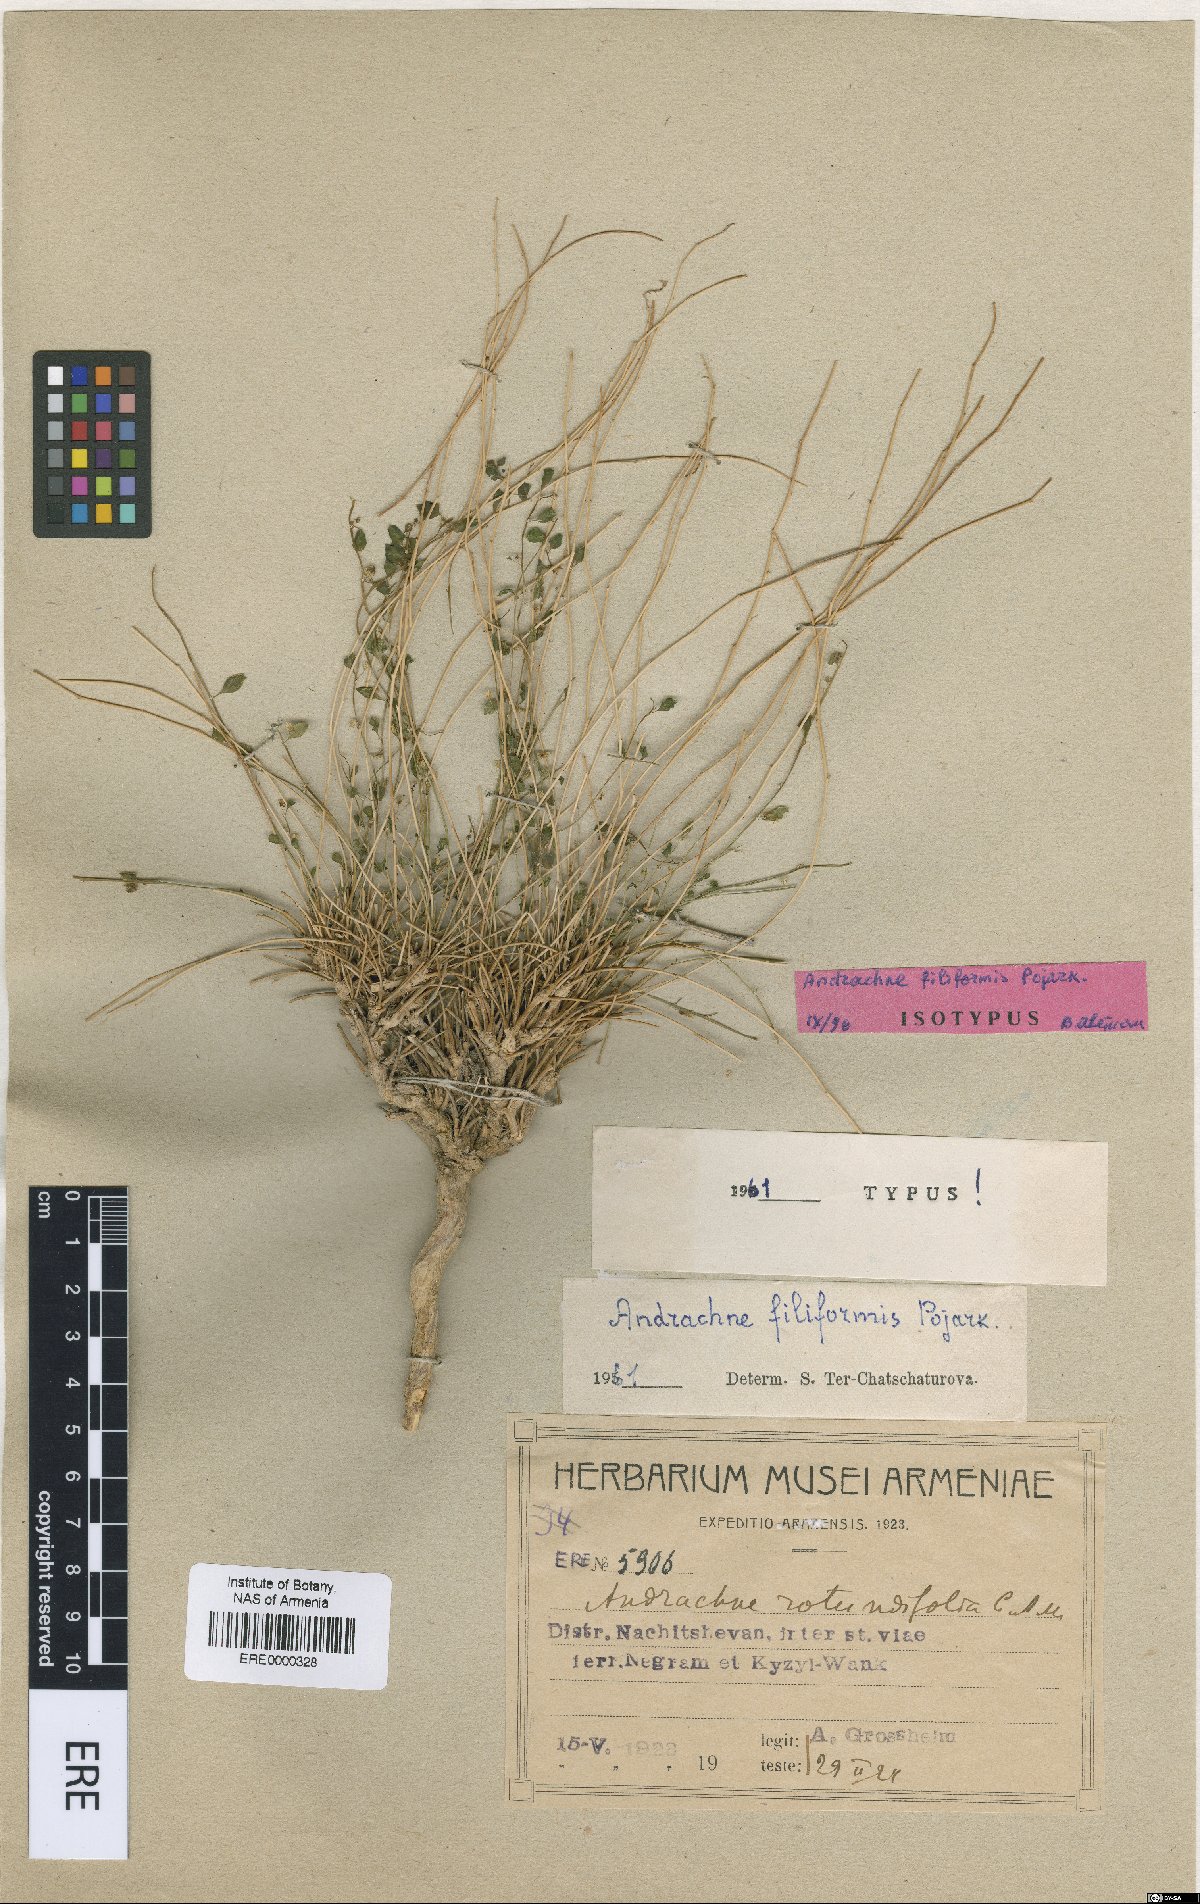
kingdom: Plantae
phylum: Tracheophyta
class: Magnoliopsida
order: Malpighiales
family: Phyllanthaceae
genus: Andrachne
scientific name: Andrachne filiformis
